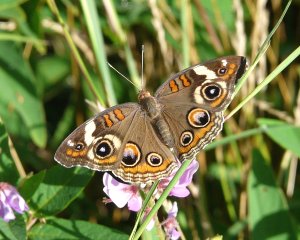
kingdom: Animalia
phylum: Arthropoda
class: Insecta
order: Lepidoptera
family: Nymphalidae
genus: Junonia
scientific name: Junonia coenia
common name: Common Buckeye
